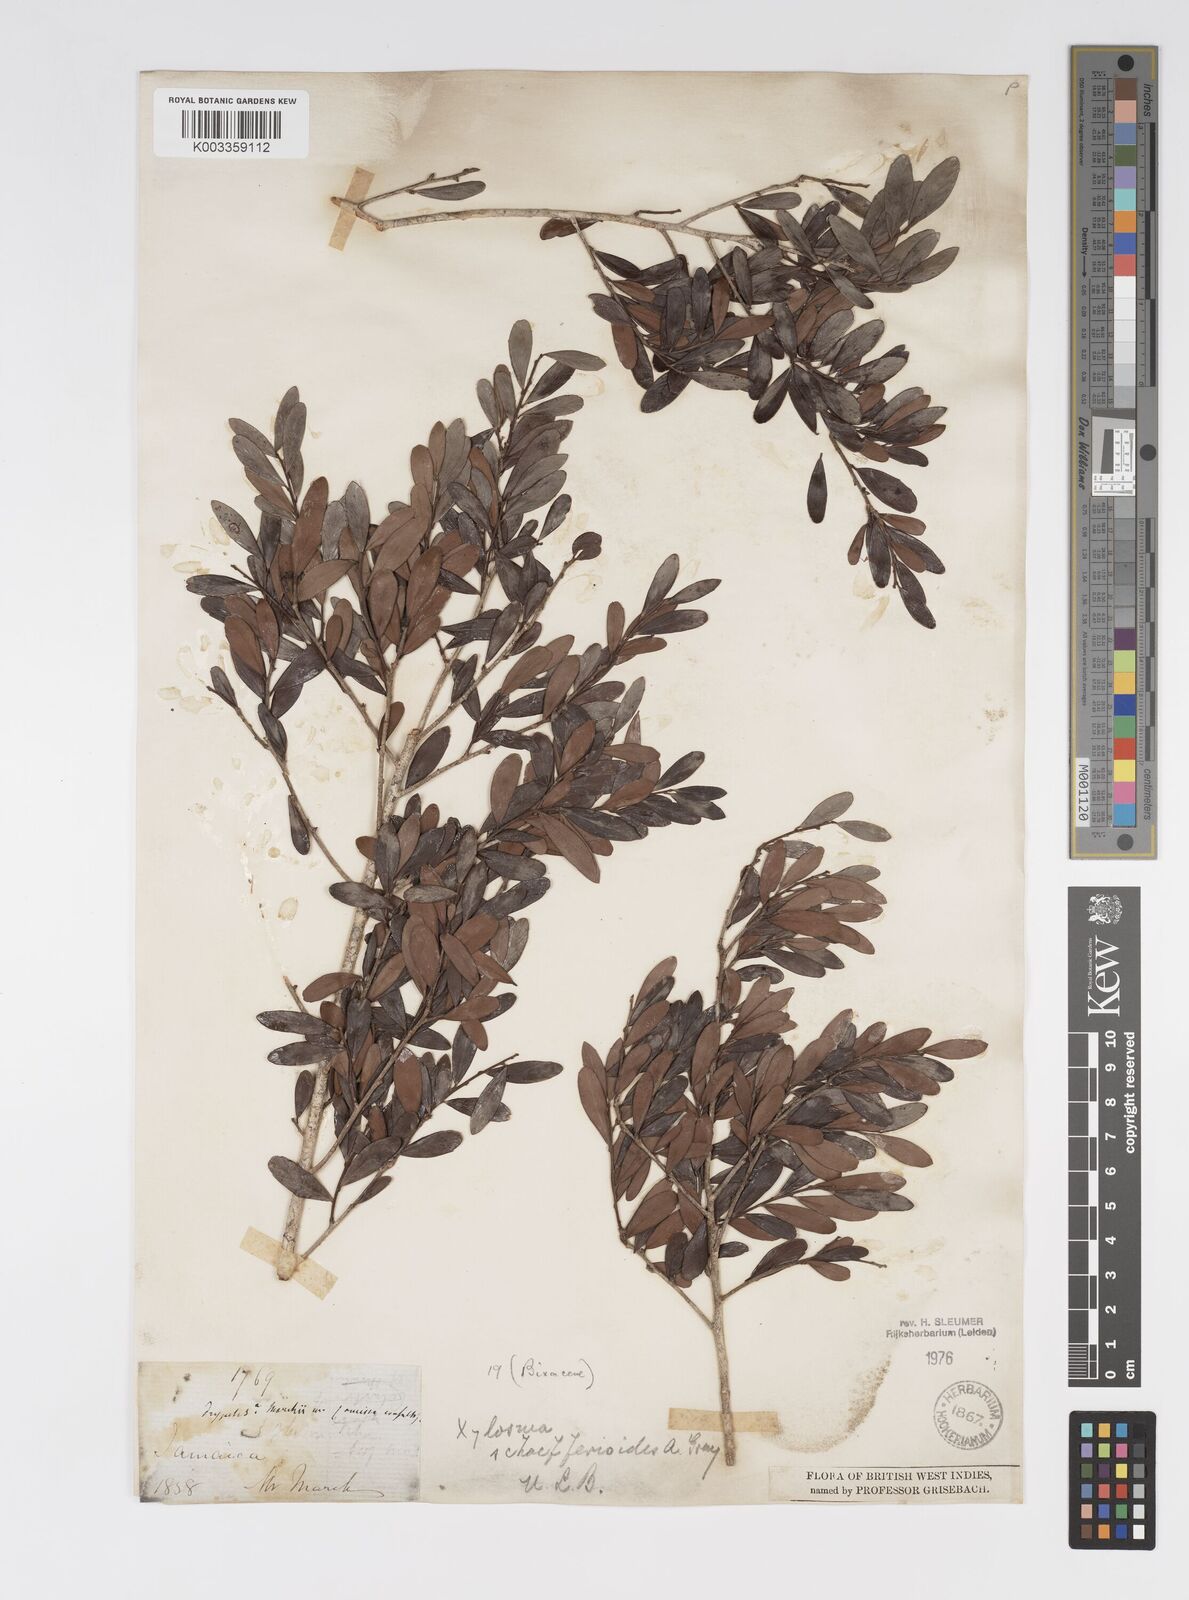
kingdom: Plantae
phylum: Tracheophyta
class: Magnoliopsida
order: Malpighiales
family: Salicaceae
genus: Xylosma
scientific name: Xylosma schaefferioides
